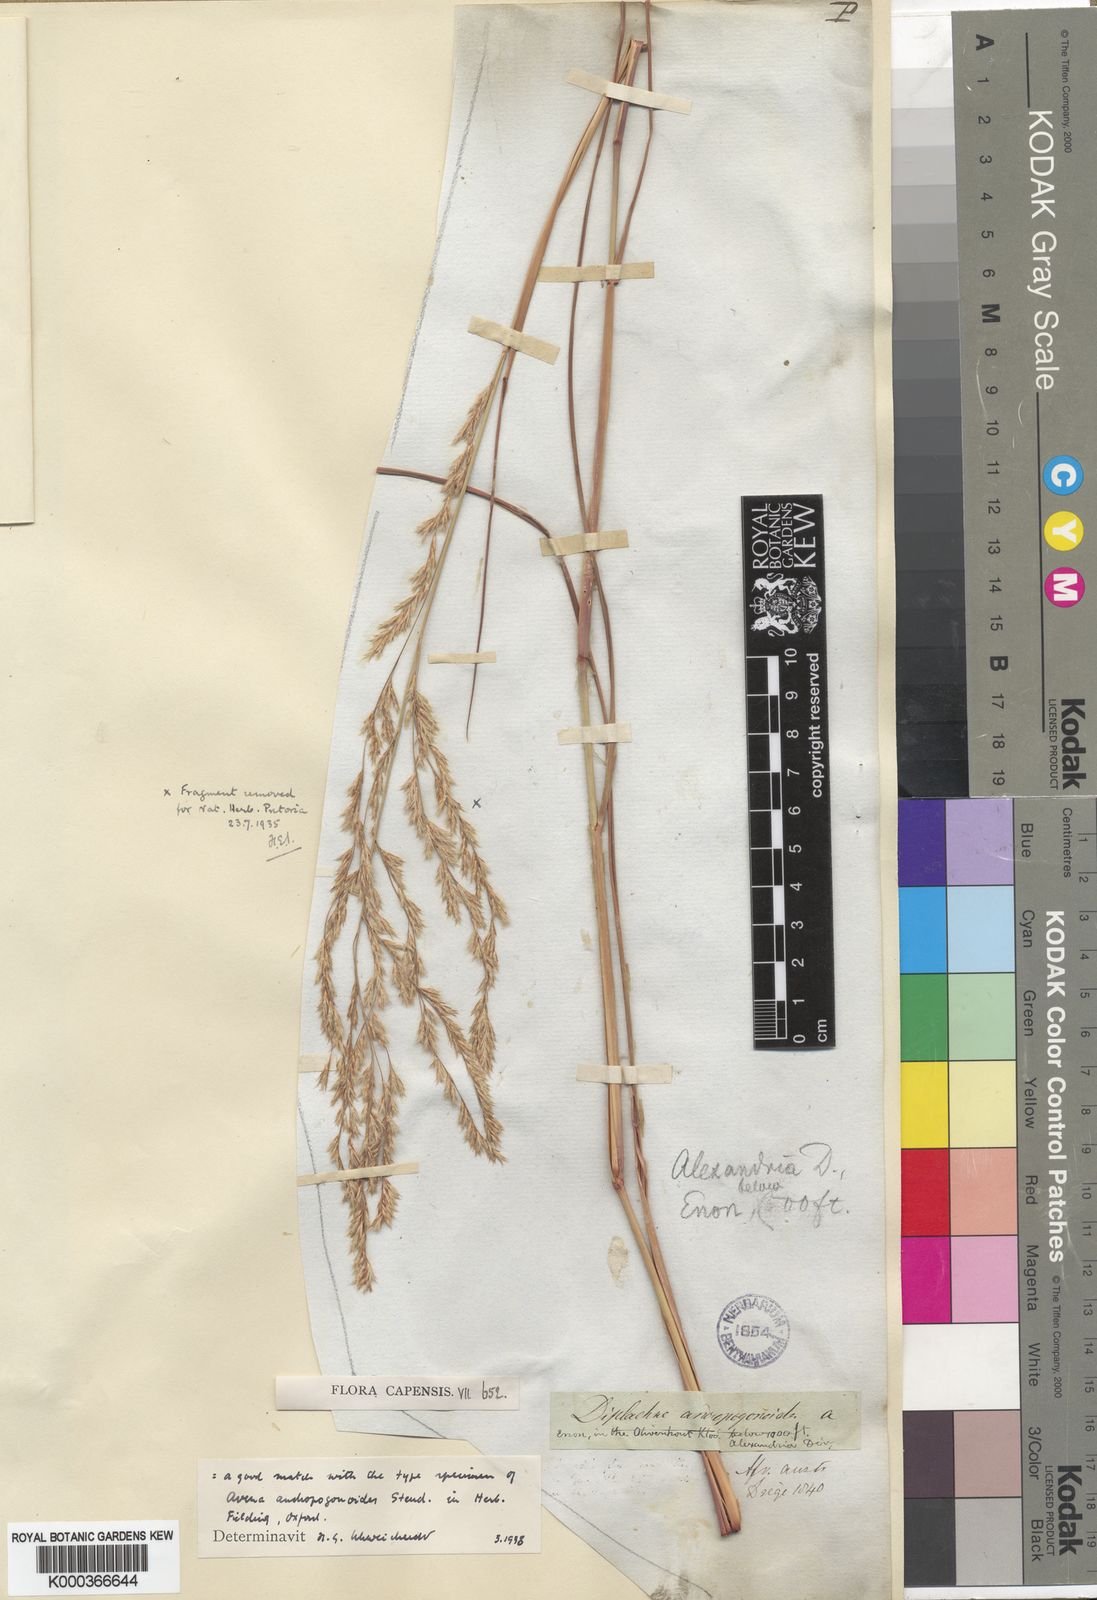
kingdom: Plantae
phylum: Tracheophyta
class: Liliopsida
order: Poales
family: Poaceae
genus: Triraphis
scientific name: Triraphis andropogonoides
